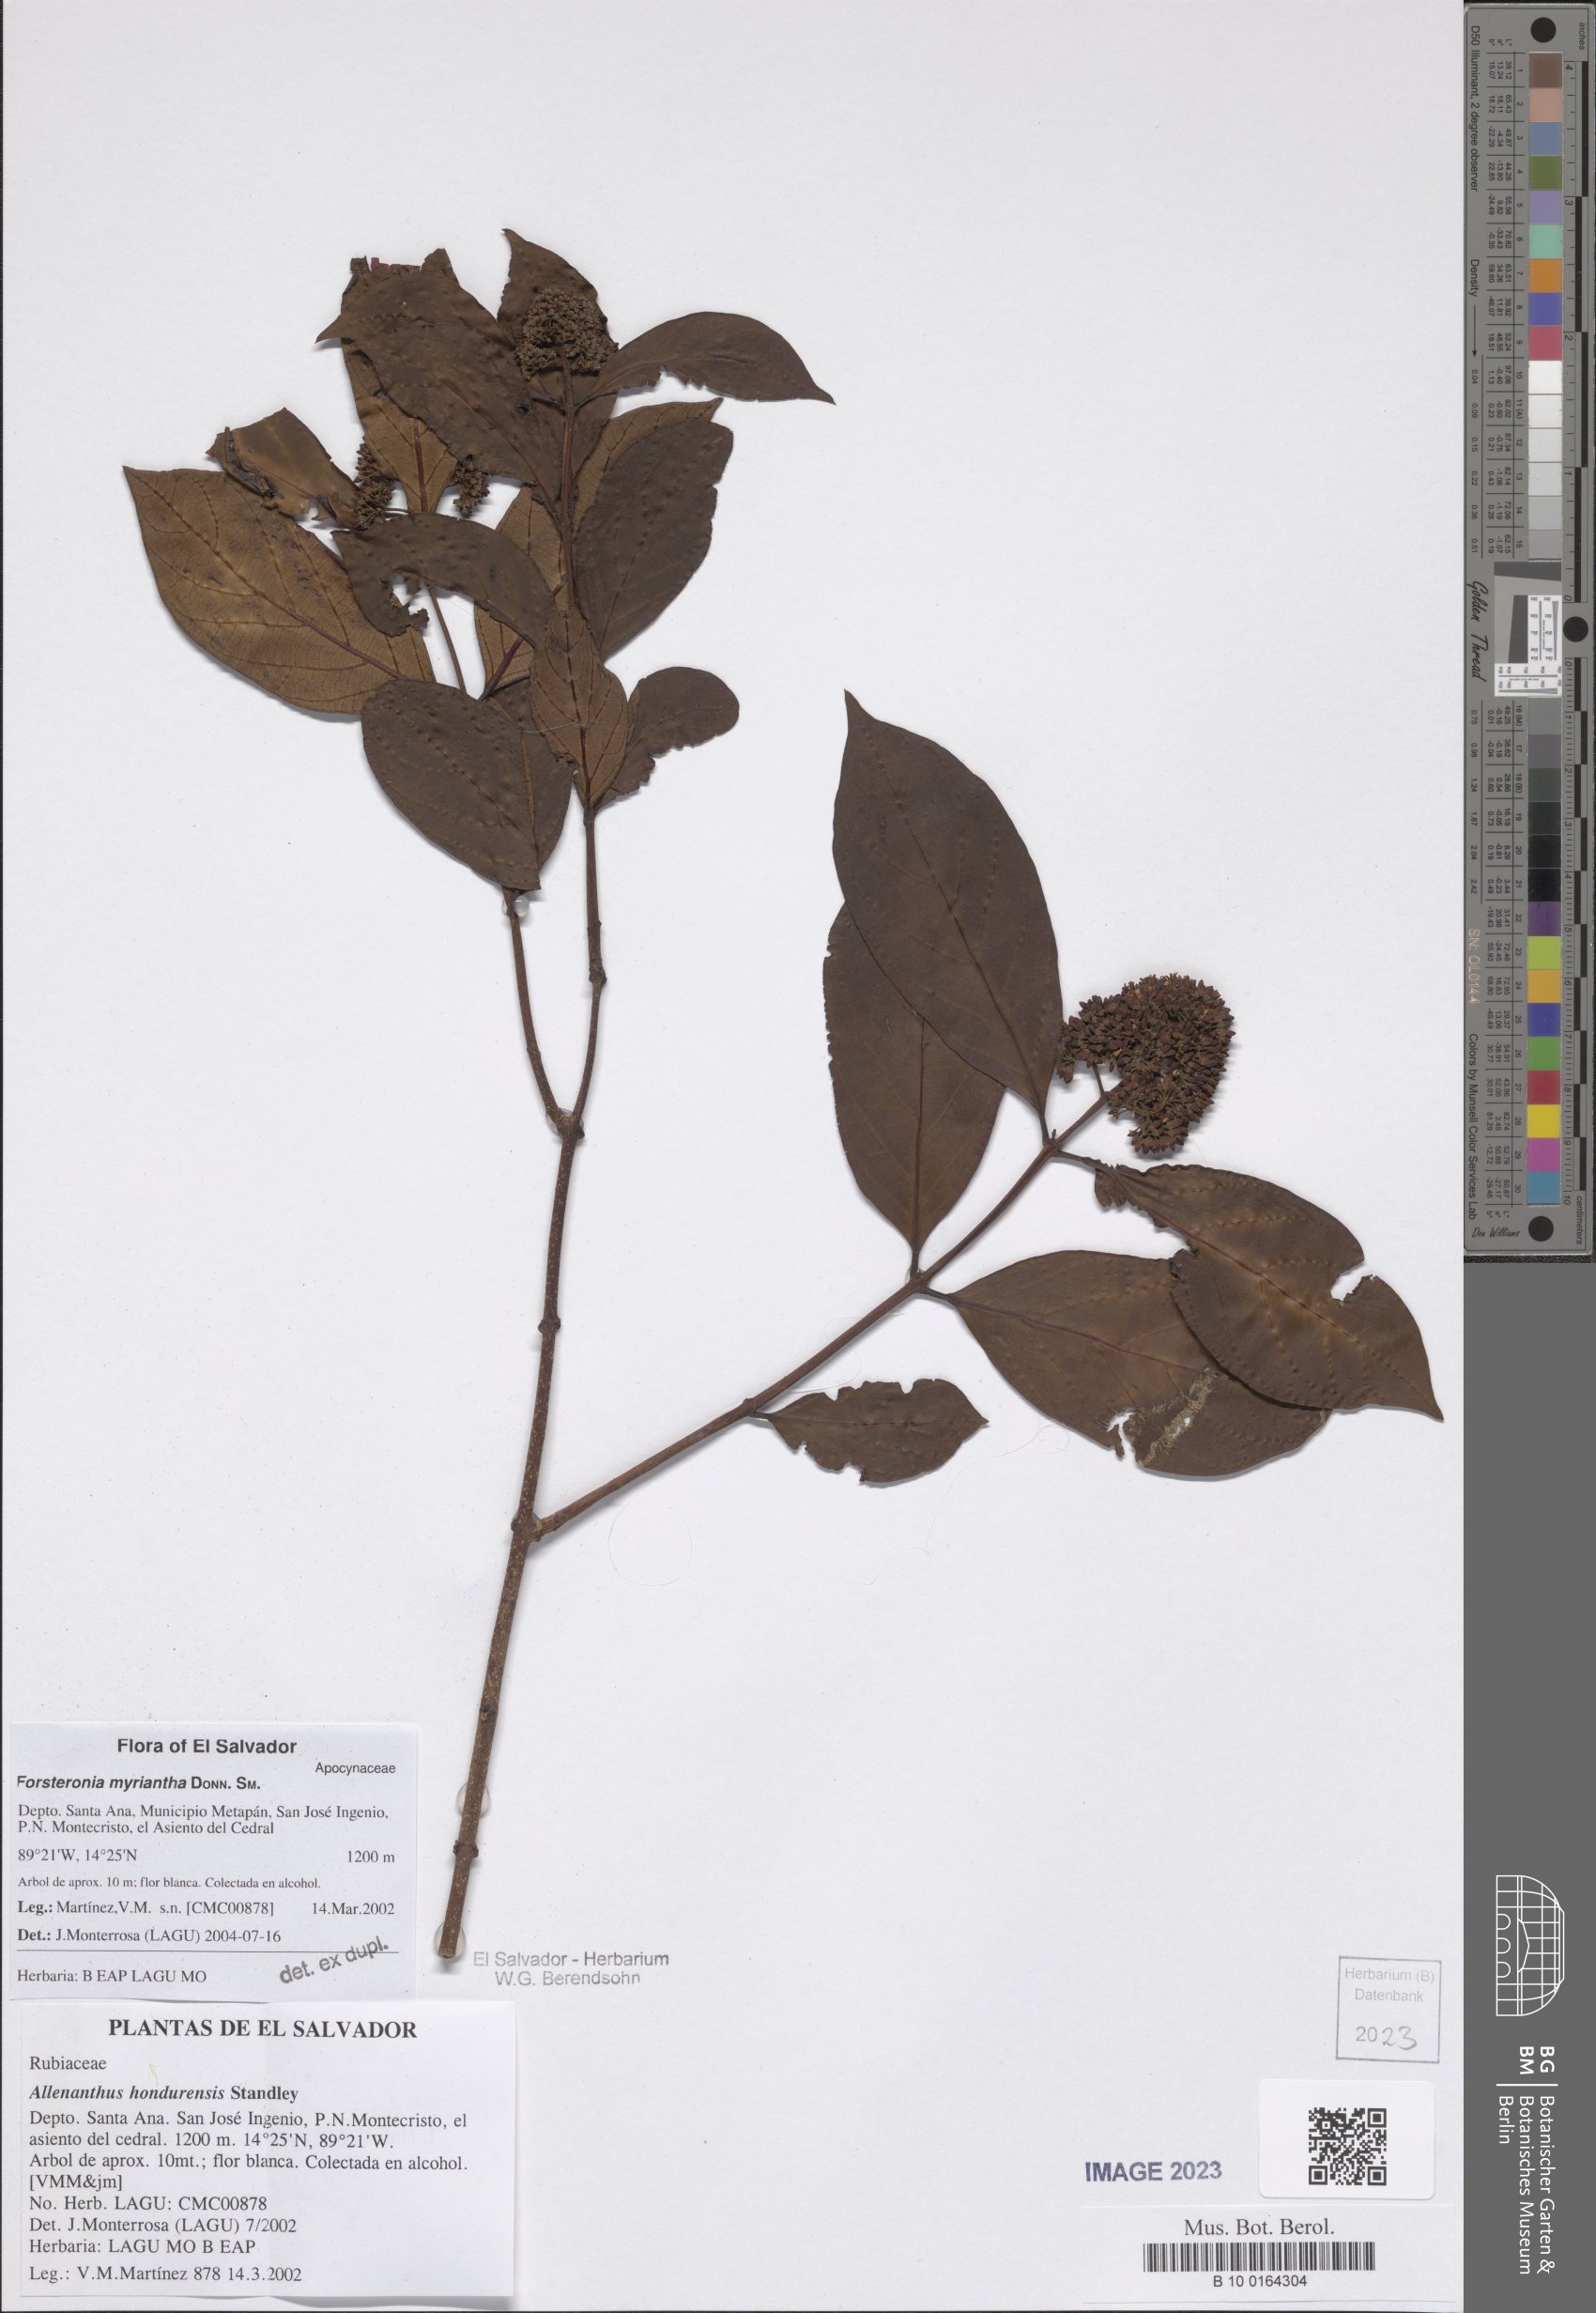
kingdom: Plantae
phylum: Tracheophyta
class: Magnoliopsida
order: Gentianales
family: Apocynaceae
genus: Forsteronia
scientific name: Forsteronia myriantha
